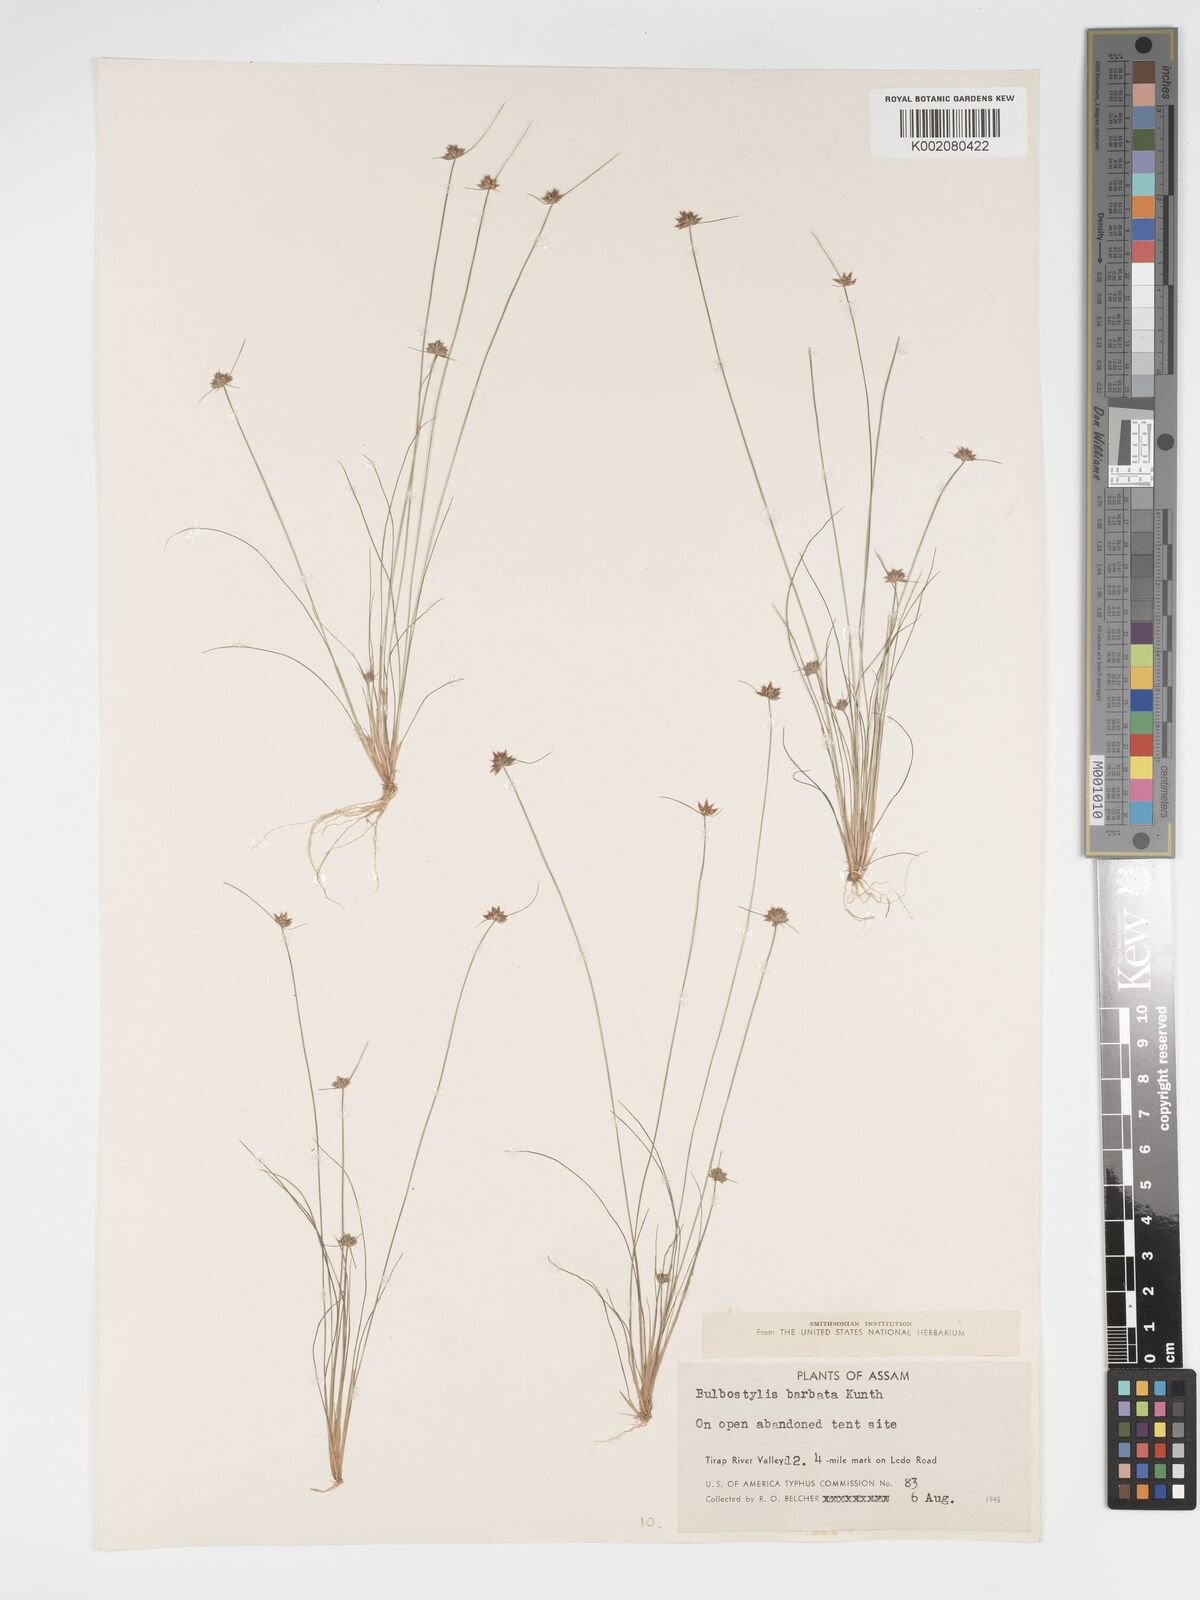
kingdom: Plantae
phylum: Tracheophyta
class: Liliopsida
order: Poales
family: Cyperaceae
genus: Bulbostylis
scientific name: Bulbostylis barbata
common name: Watergrass
